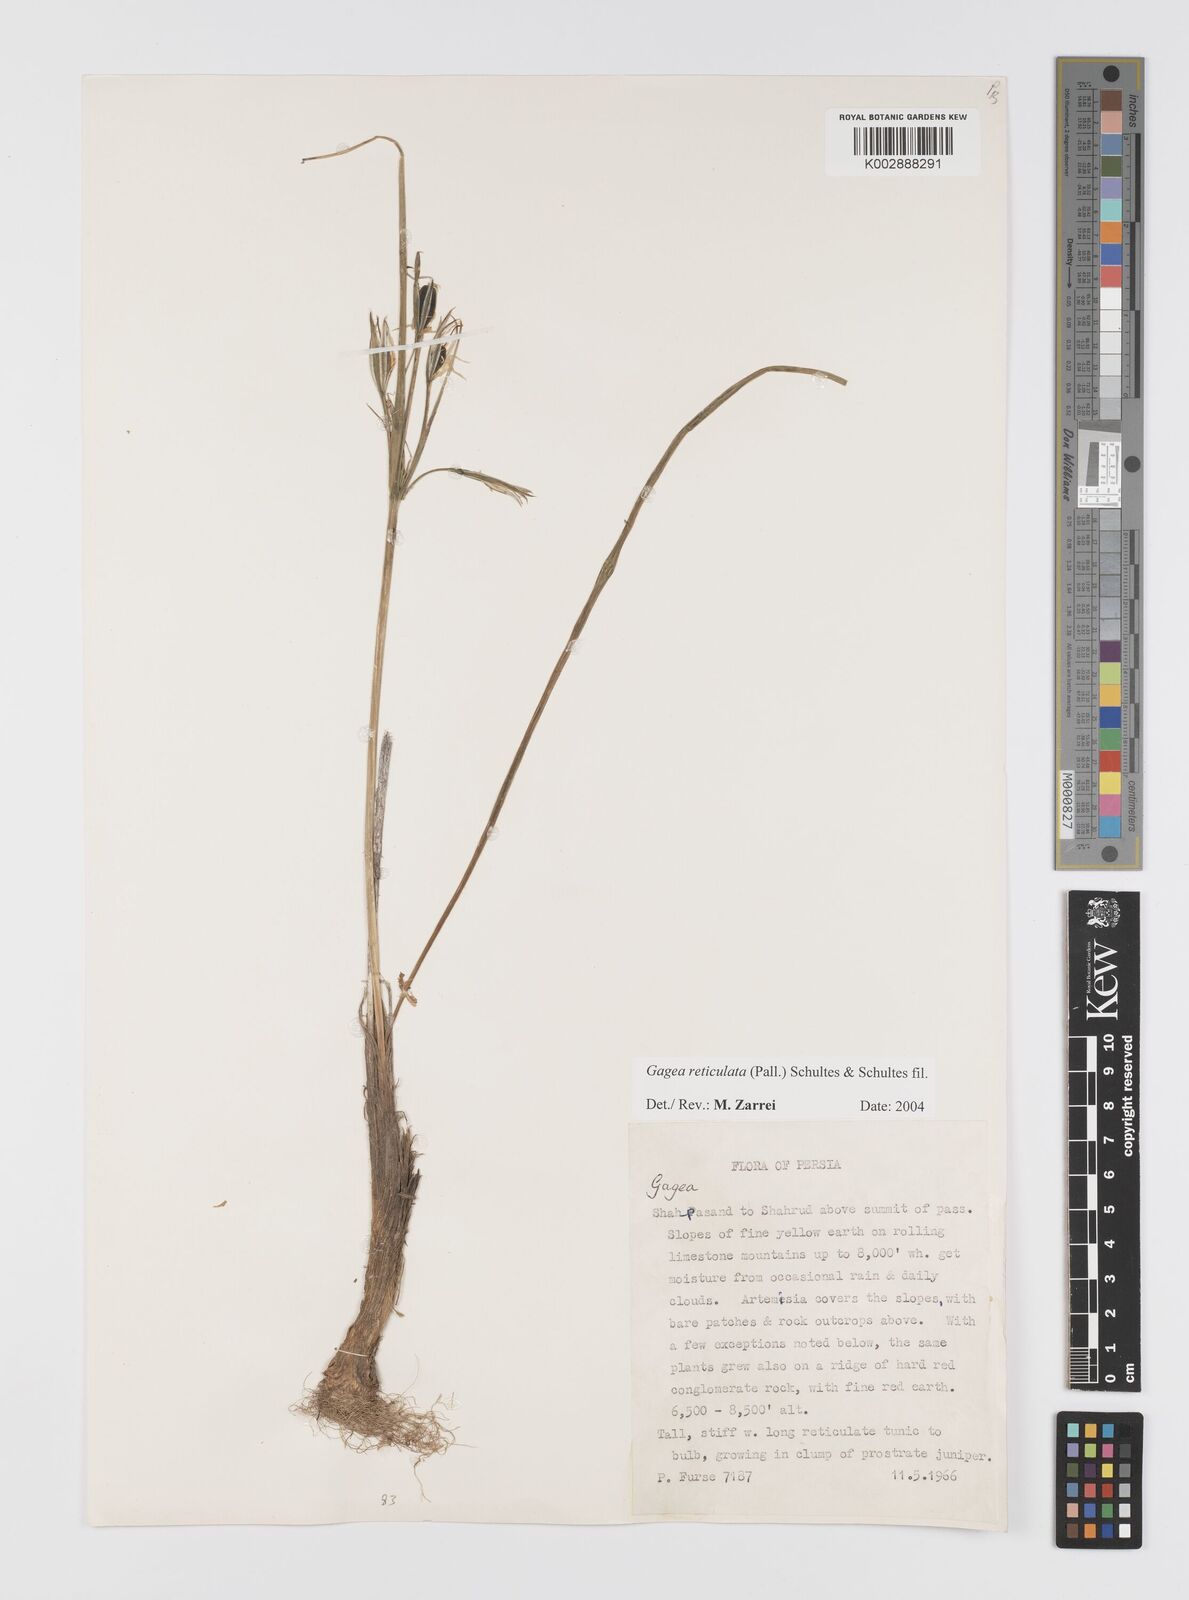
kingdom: Plantae
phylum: Tracheophyta
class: Liliopsida
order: Liliales
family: Liliaceae
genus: Gagea
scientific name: Gagea reticulata
